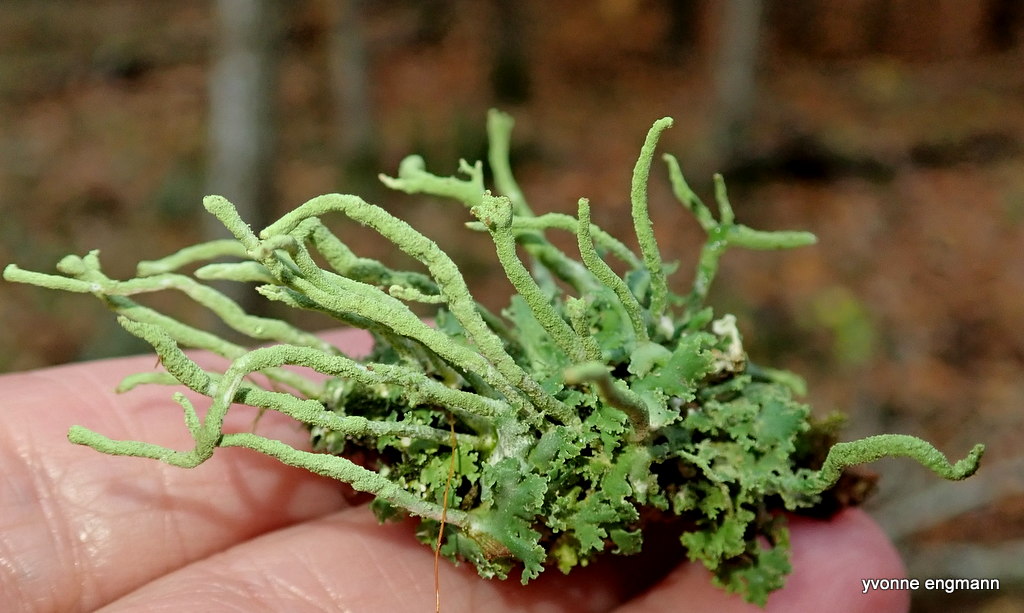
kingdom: Fungi
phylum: Ascomycota
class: Lecanoromycetes
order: Lecanorales
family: Cladoniaceae
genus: Cladonia
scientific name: Cladonia ochrochlora
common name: stød-bægerlav
